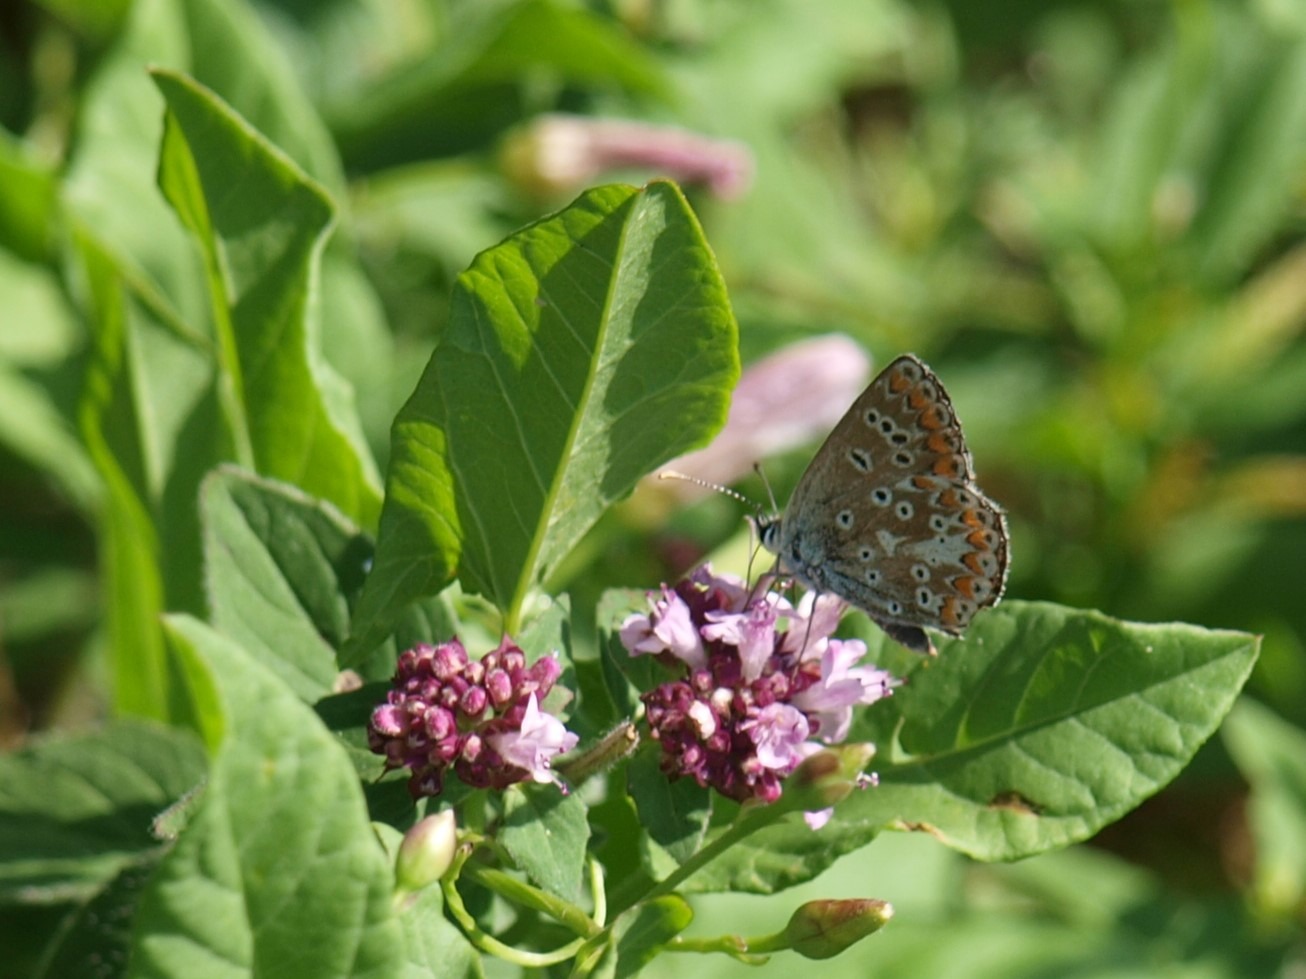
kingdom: Animalia
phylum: Arthropoda
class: Insecta
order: Lepidoptera
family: Lycaenidae
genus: Aricia
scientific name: Aricia agestis
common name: Rødplettet blåfugl
